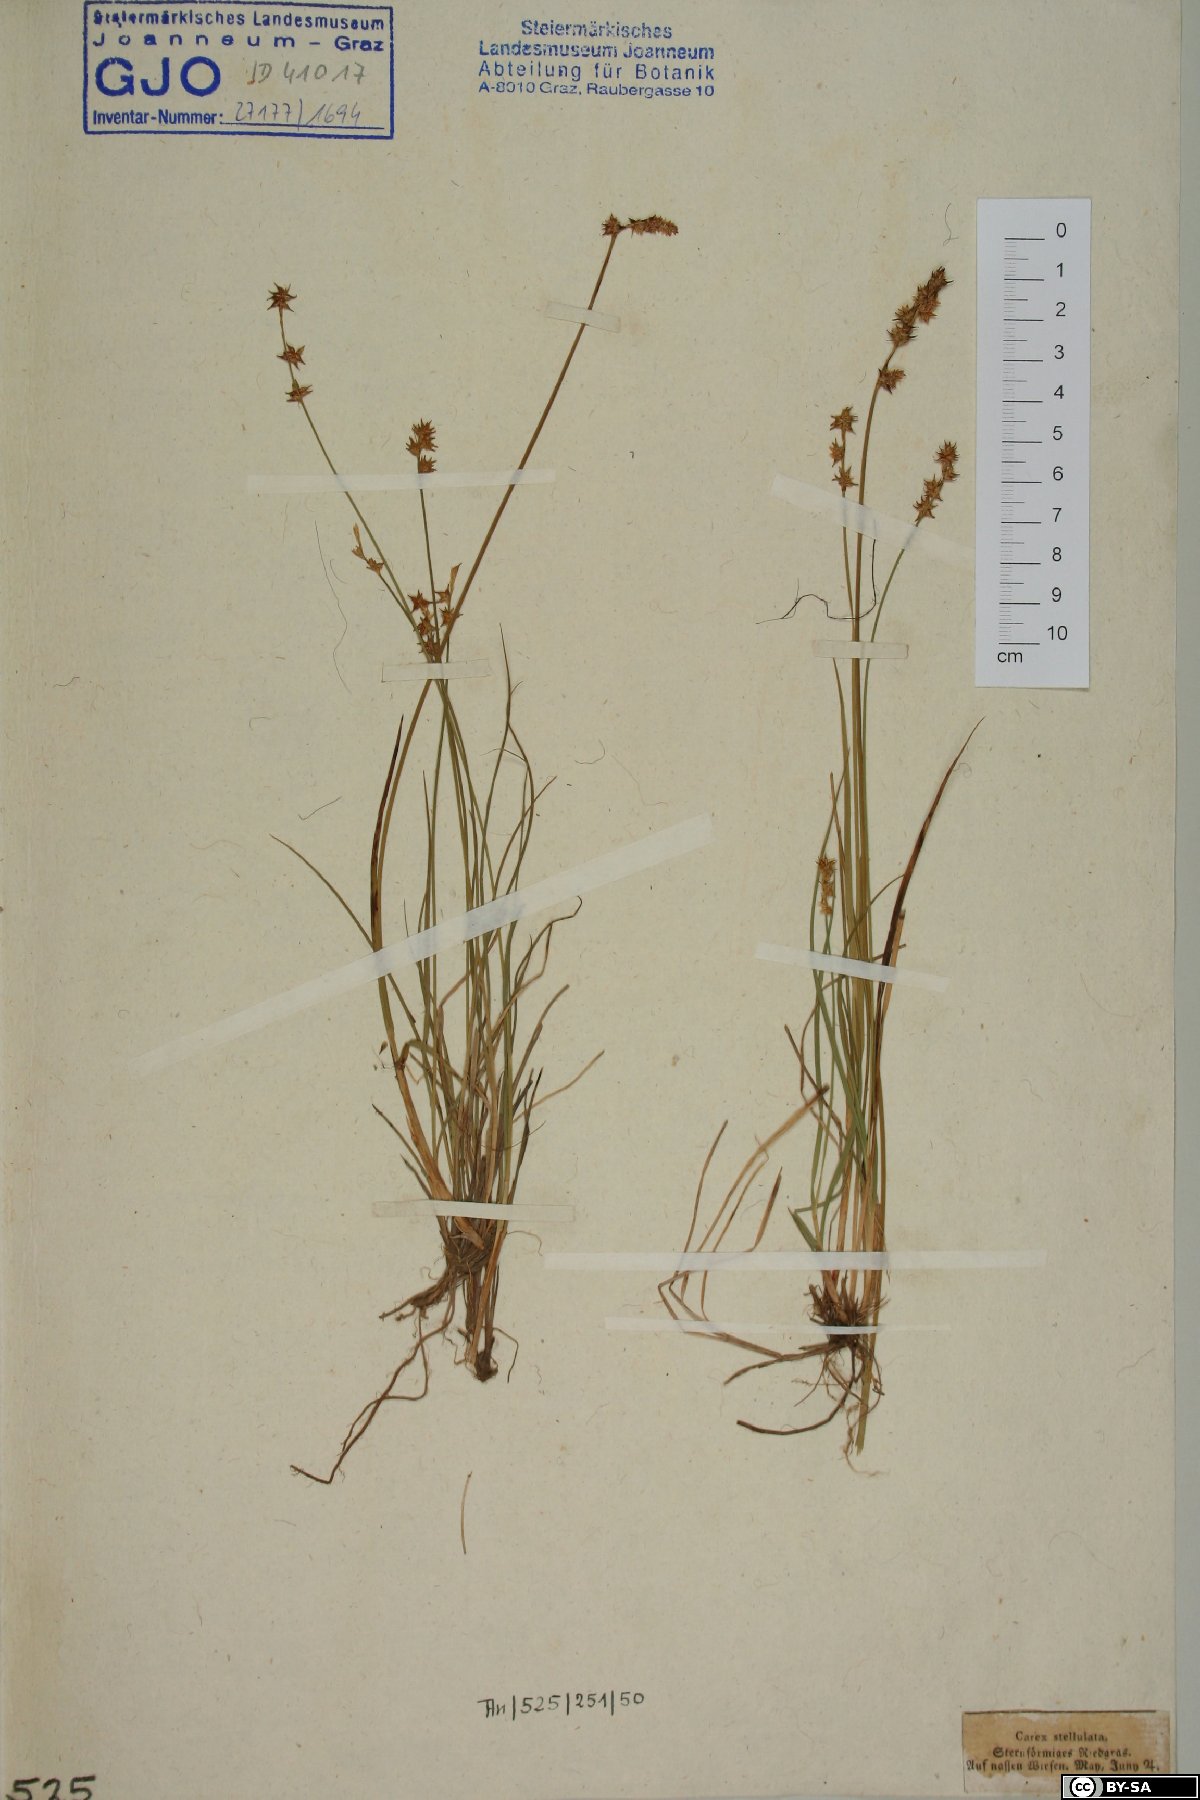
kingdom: Plantae
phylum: Tracheophyta
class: Liliopsida
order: Poales
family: Cyperaceae
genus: Carex
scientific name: Carex echinata
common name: Star sedge
